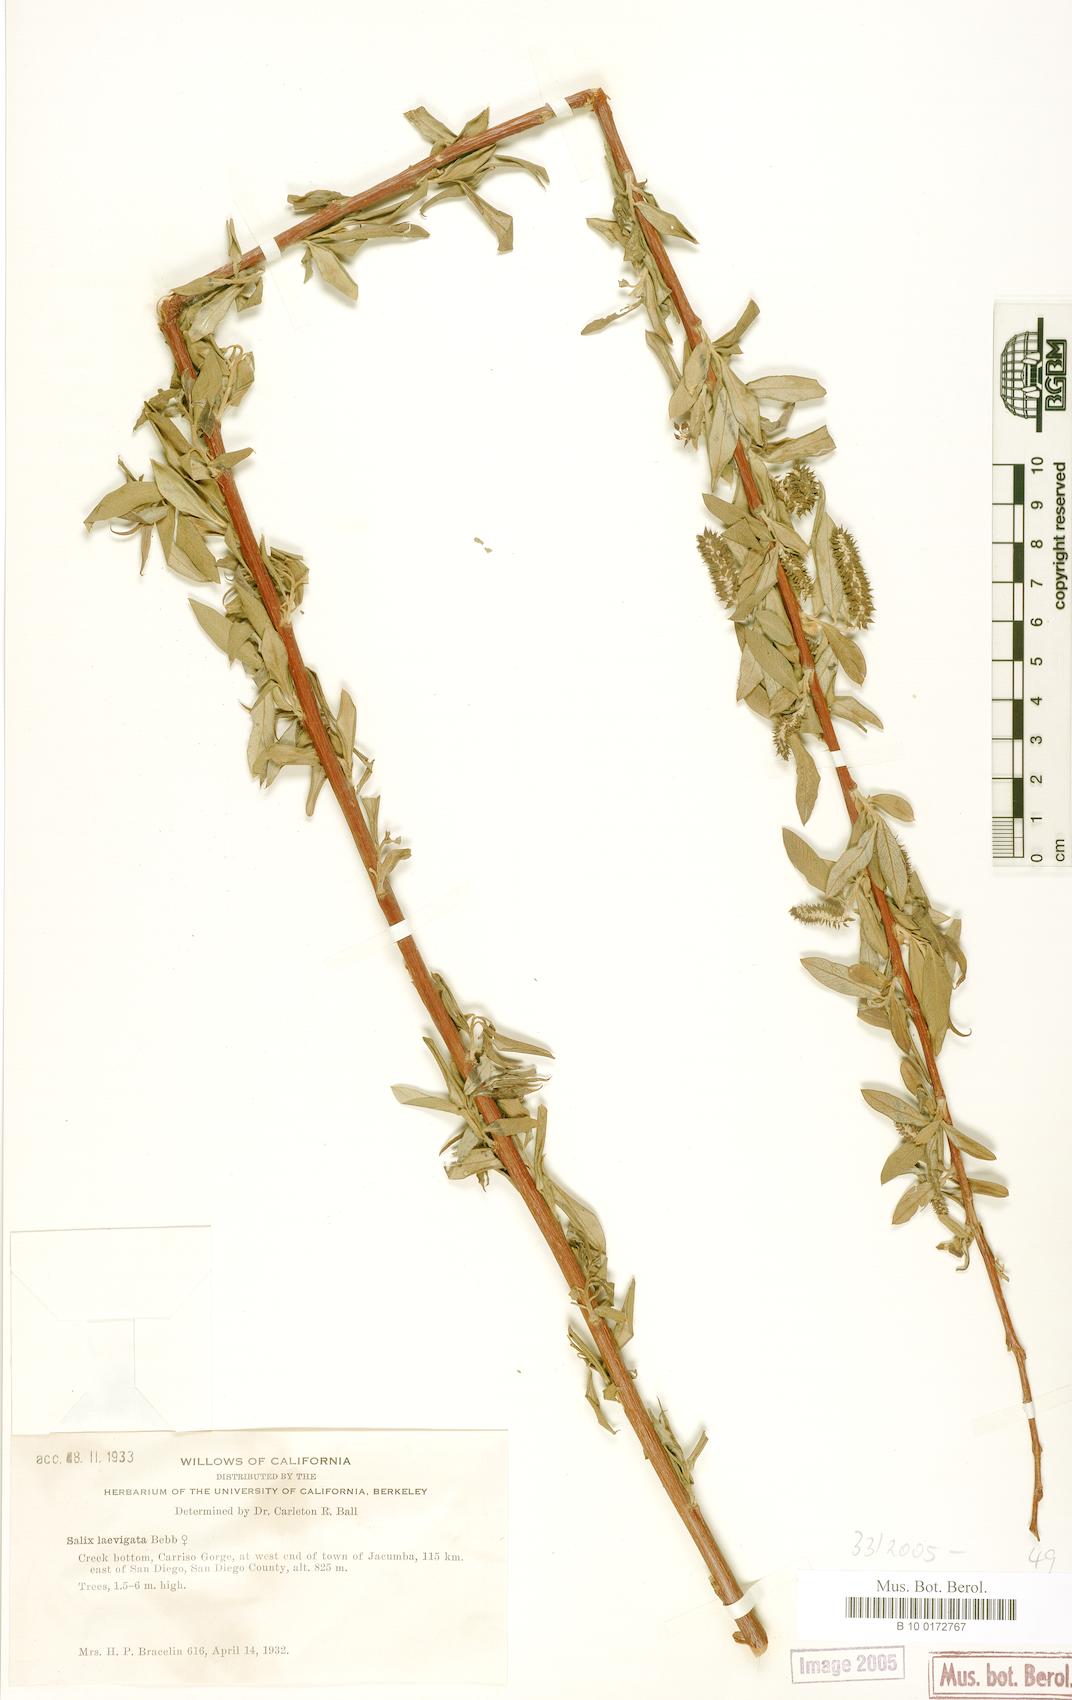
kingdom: Plantae
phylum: Tracheophyta
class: Magnoliopsida
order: Malpighiales
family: Salicaceae
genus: Salix
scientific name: Salix laevigata
